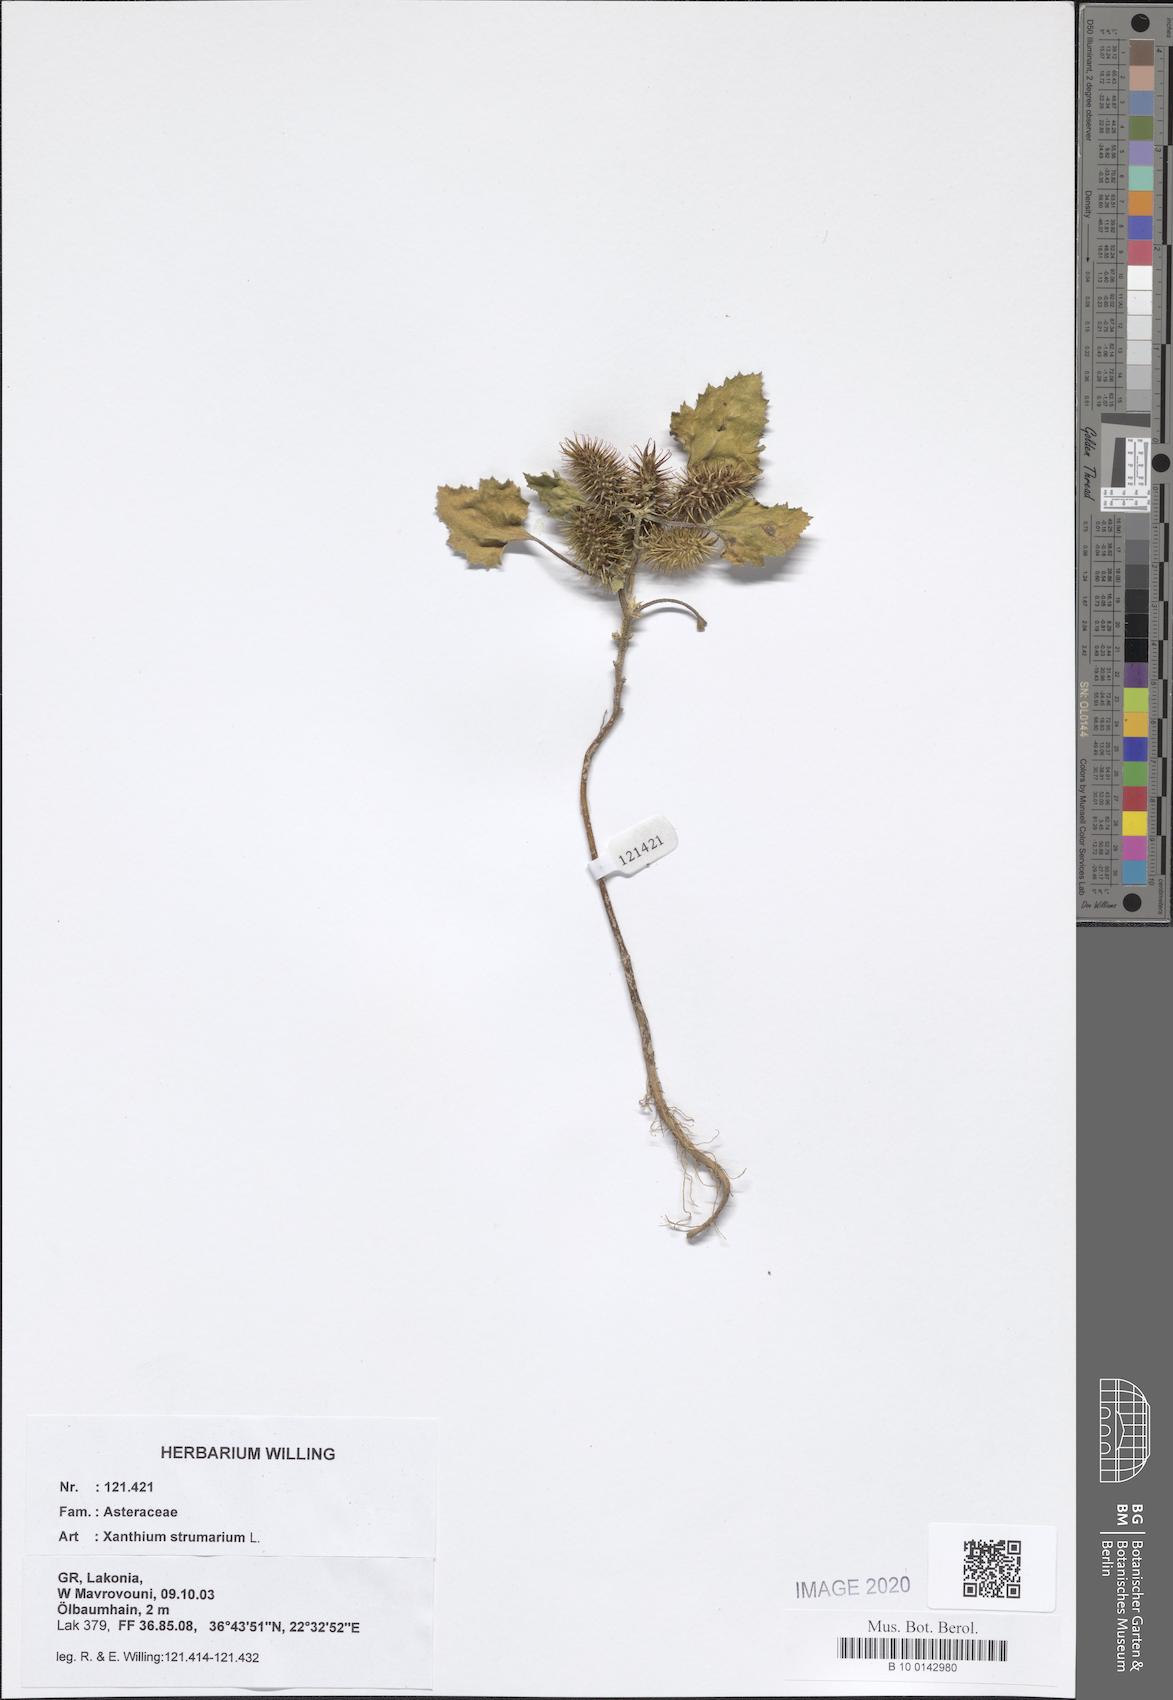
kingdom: Plantae
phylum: Tracheophyta
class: Magnoliopsida
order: Asterales
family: Asteraceae
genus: Xanthium
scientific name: Xanthium strumarium
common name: Rough cocklebur
